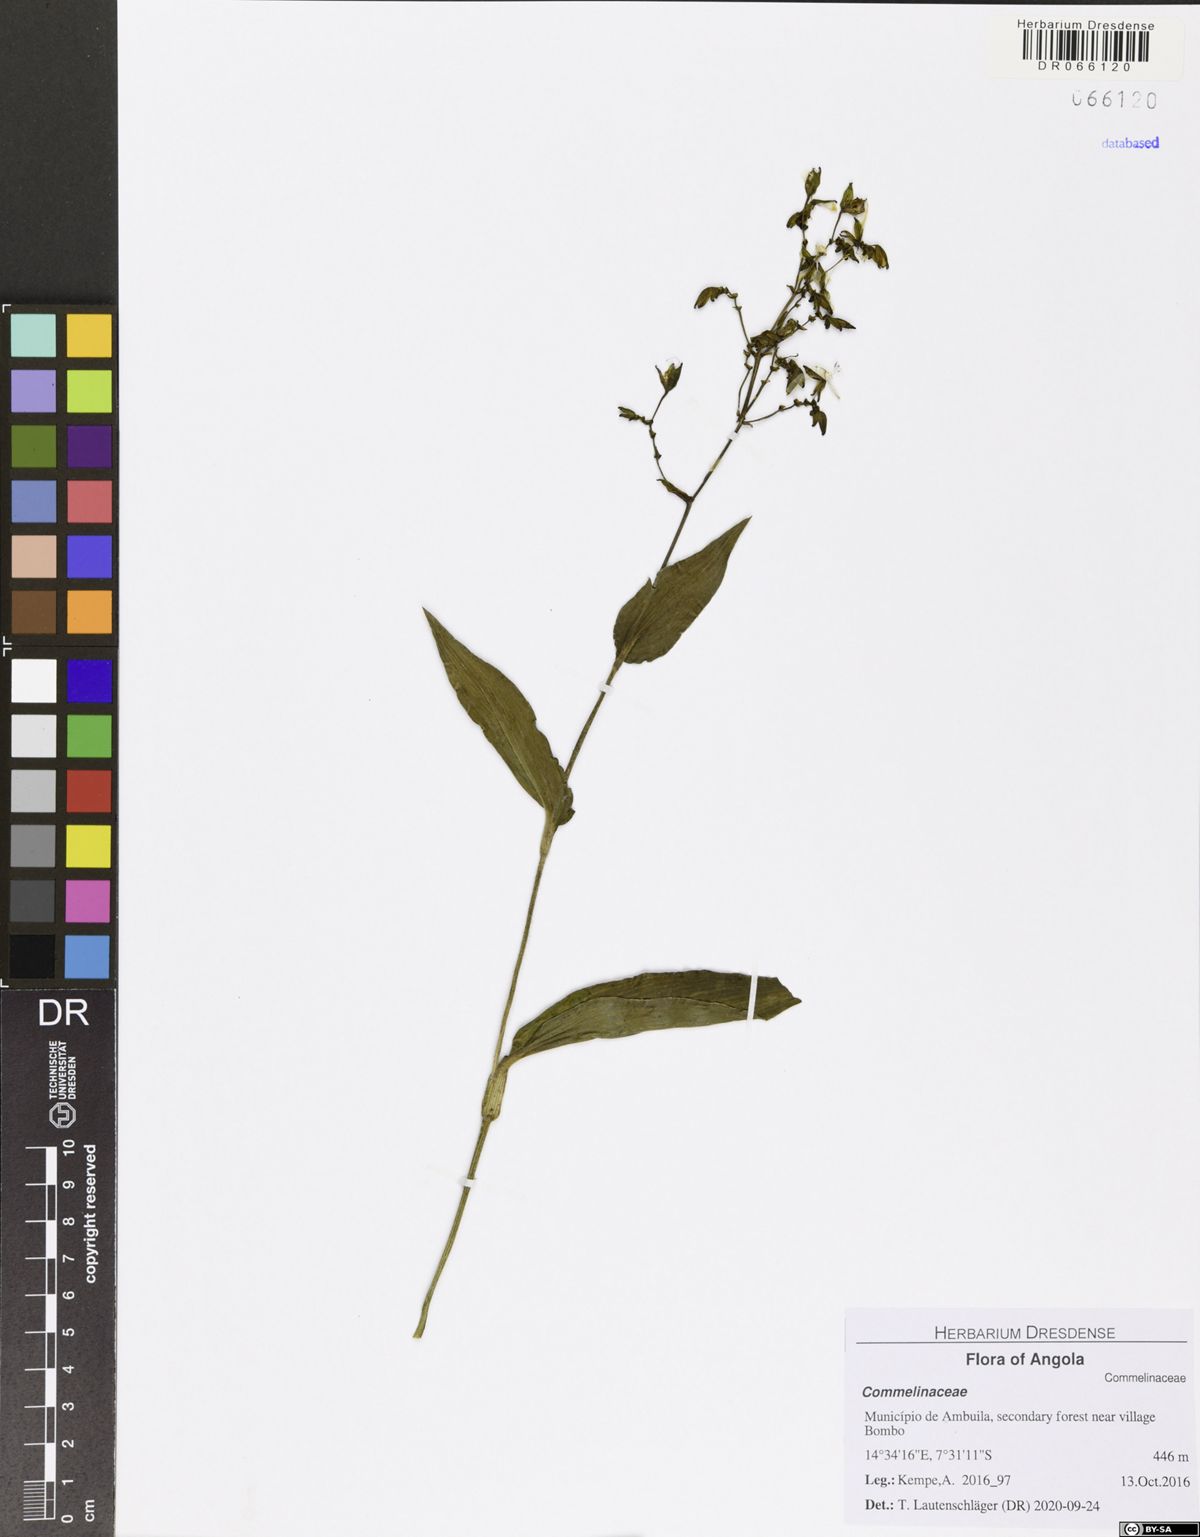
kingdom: Plantae
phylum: Tracheophyta
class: Liliopsida
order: Commelinales
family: Commelinaceae
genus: Aneilema
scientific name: Aneilema aequinoctiale
